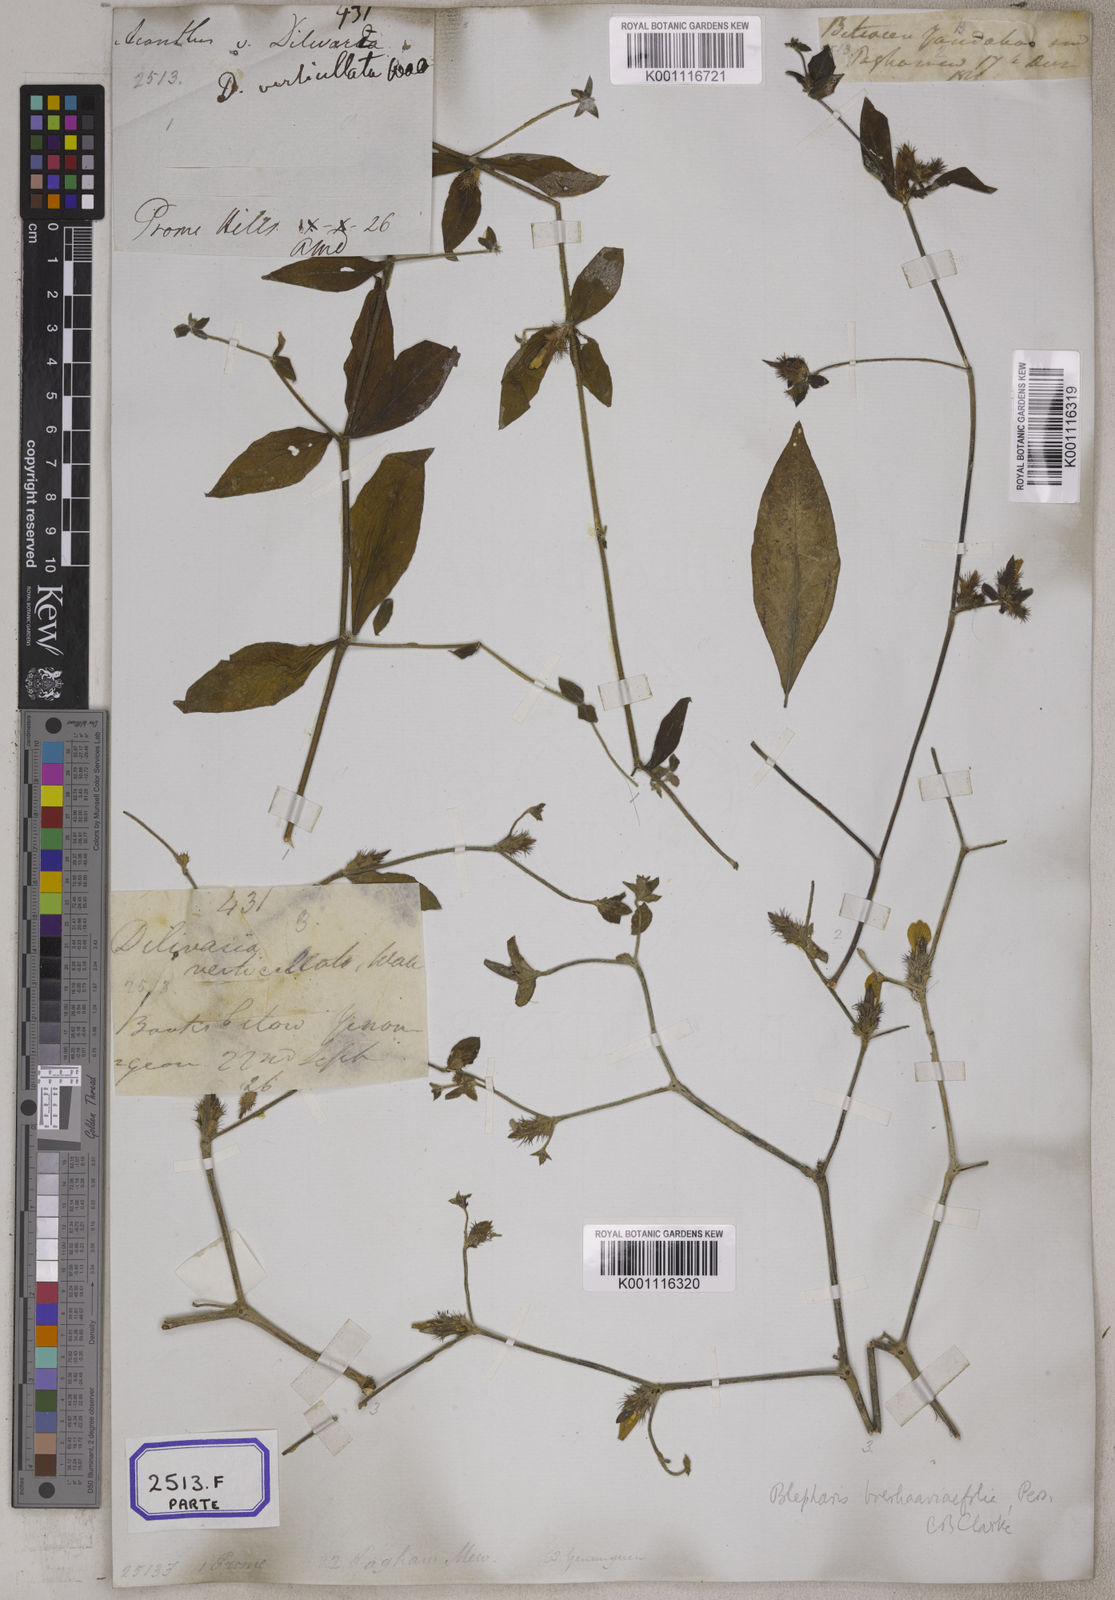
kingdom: Plantae
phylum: Tracheophyta
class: Magnoliopsida
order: Lamiales
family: Acanthaceae
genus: Blepharis
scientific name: Blepharis
